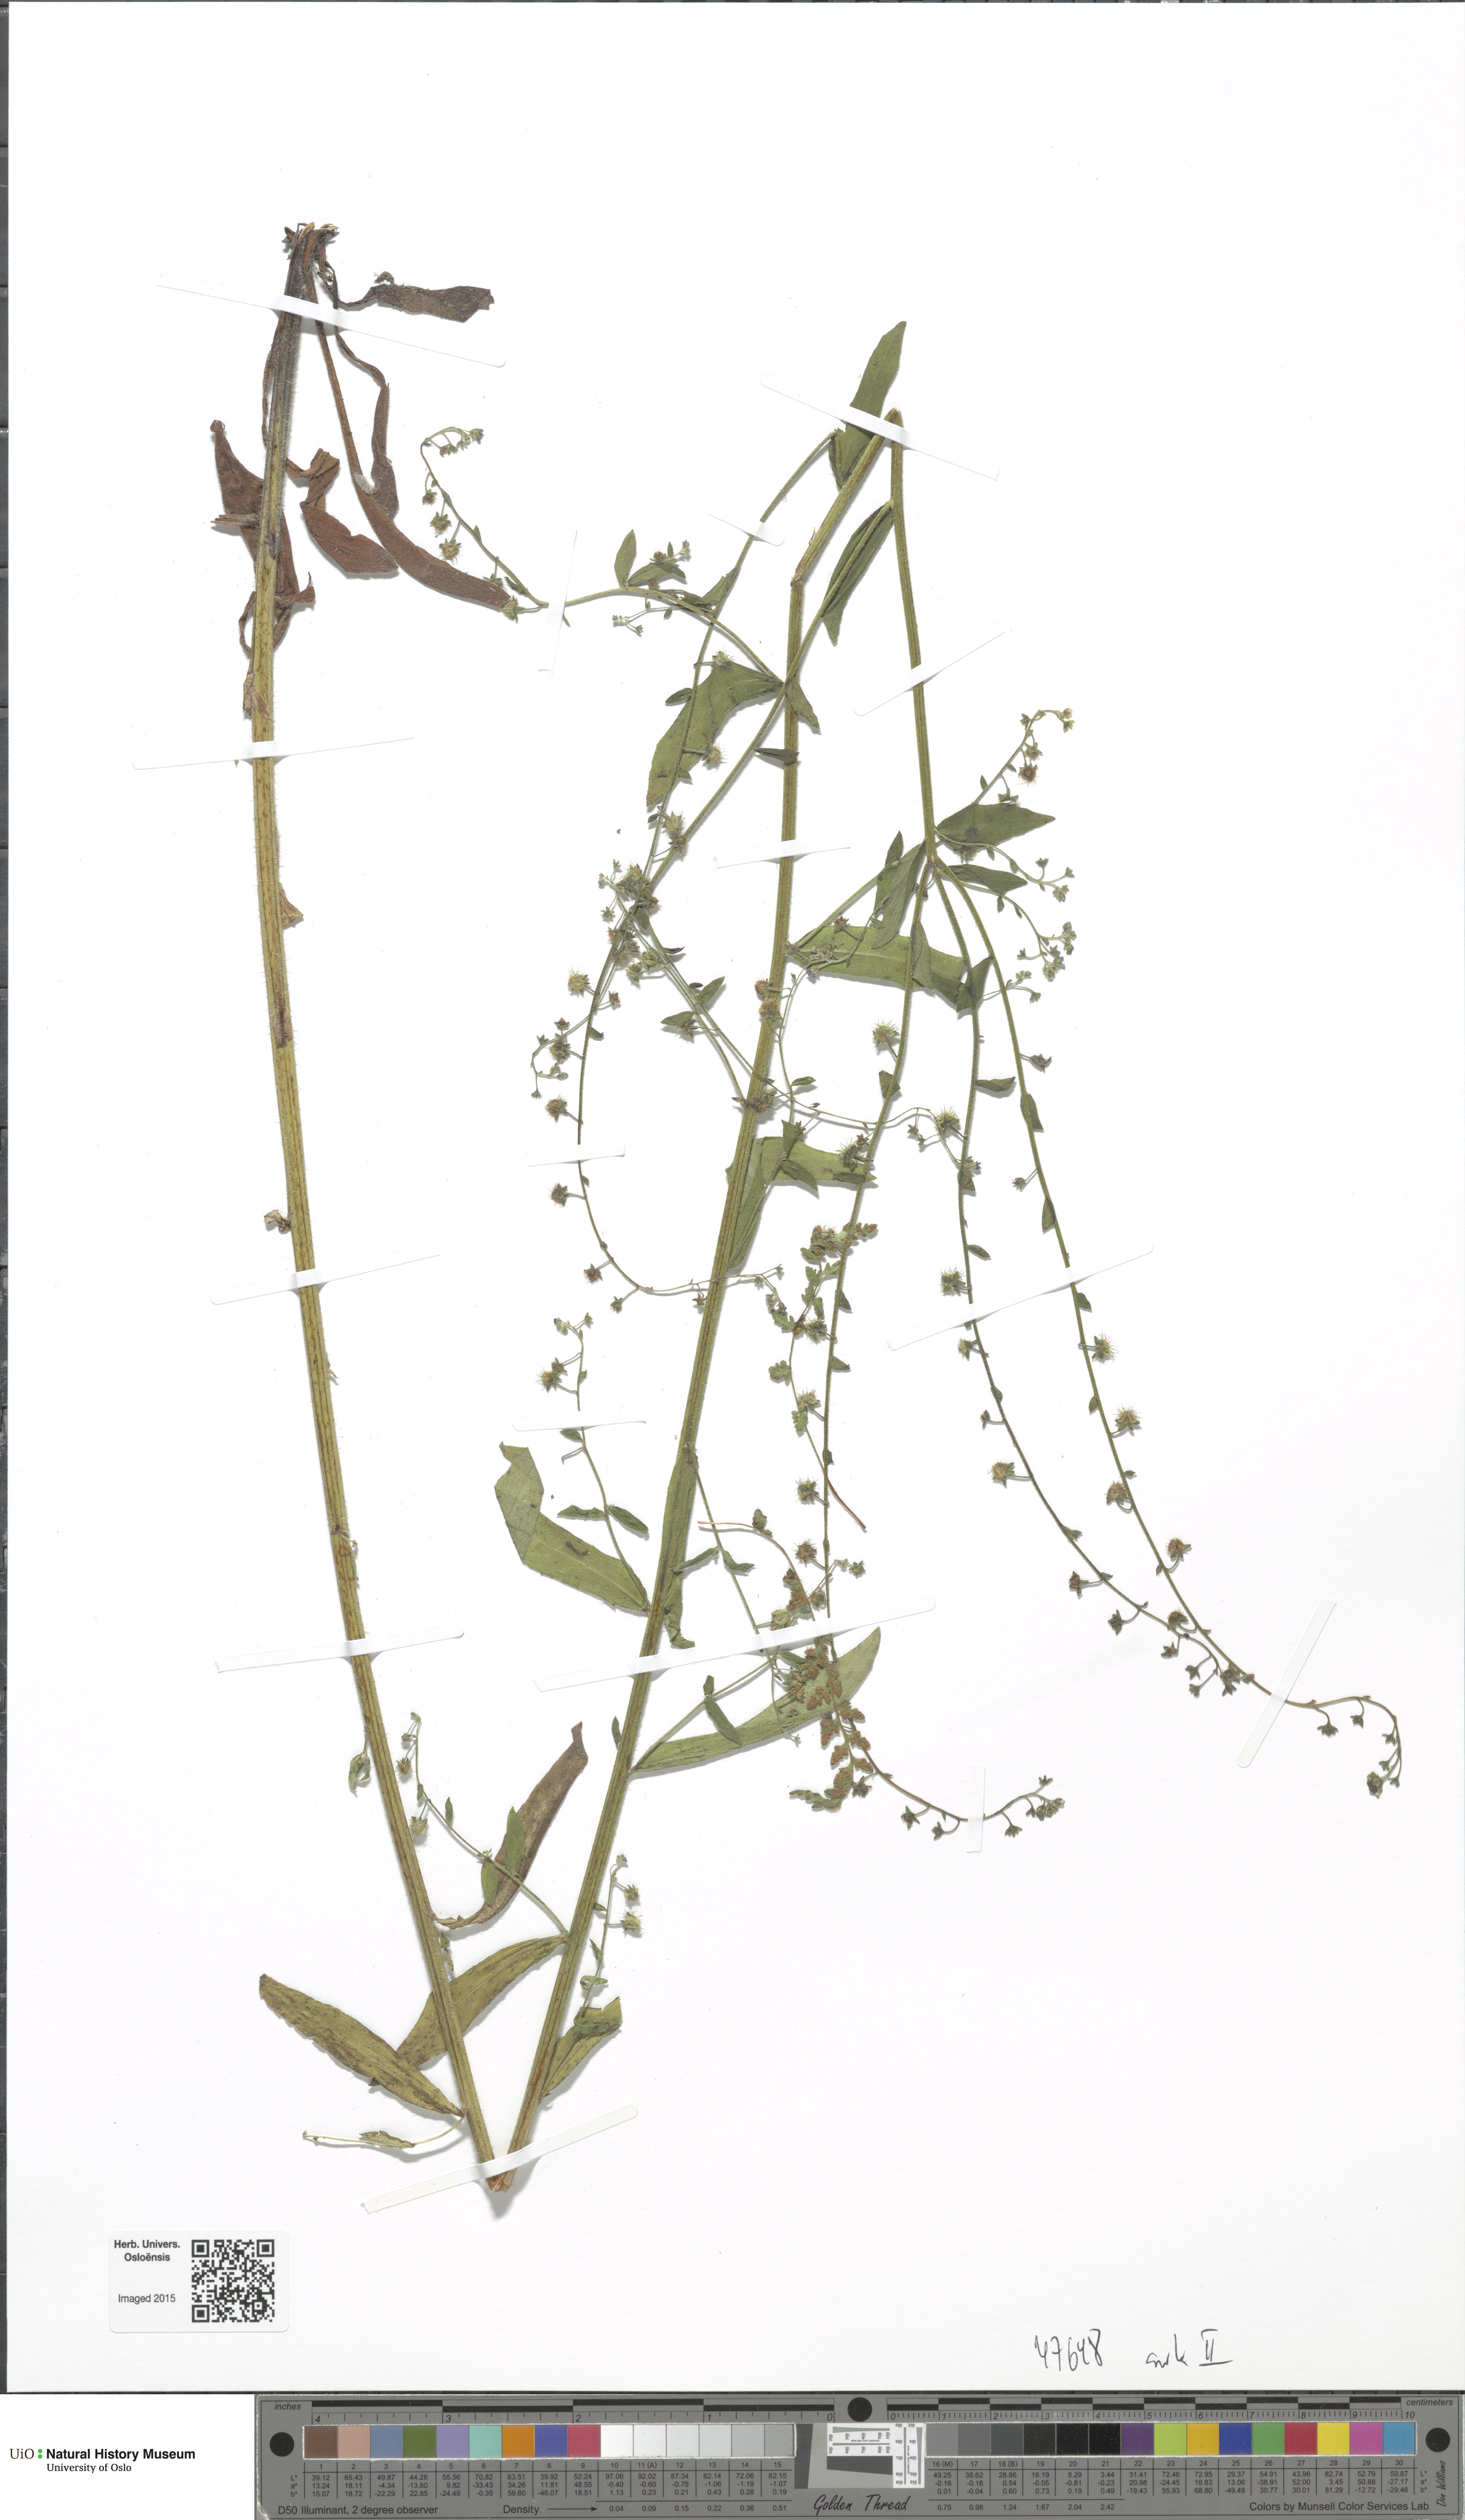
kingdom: Plantae
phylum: Tracheophyta
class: Magnoliopsida
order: Boraginales
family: Boraginaceae
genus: Hackelia
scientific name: Hackelia deflexa
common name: Nodding stickseed
